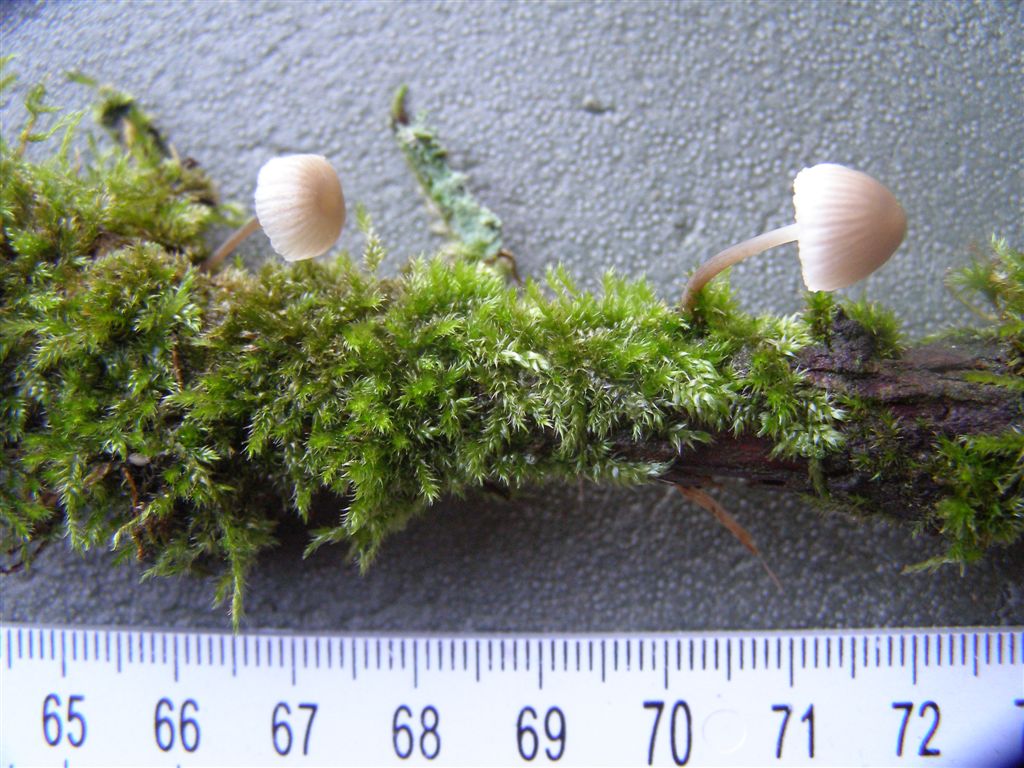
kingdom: Fungi
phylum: Basidiomycota
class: Agaricomycetes
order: Agaricales
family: Mycenaceae
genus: Mycena
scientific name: Mycena arcangeliana
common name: oliven-huesvamp
